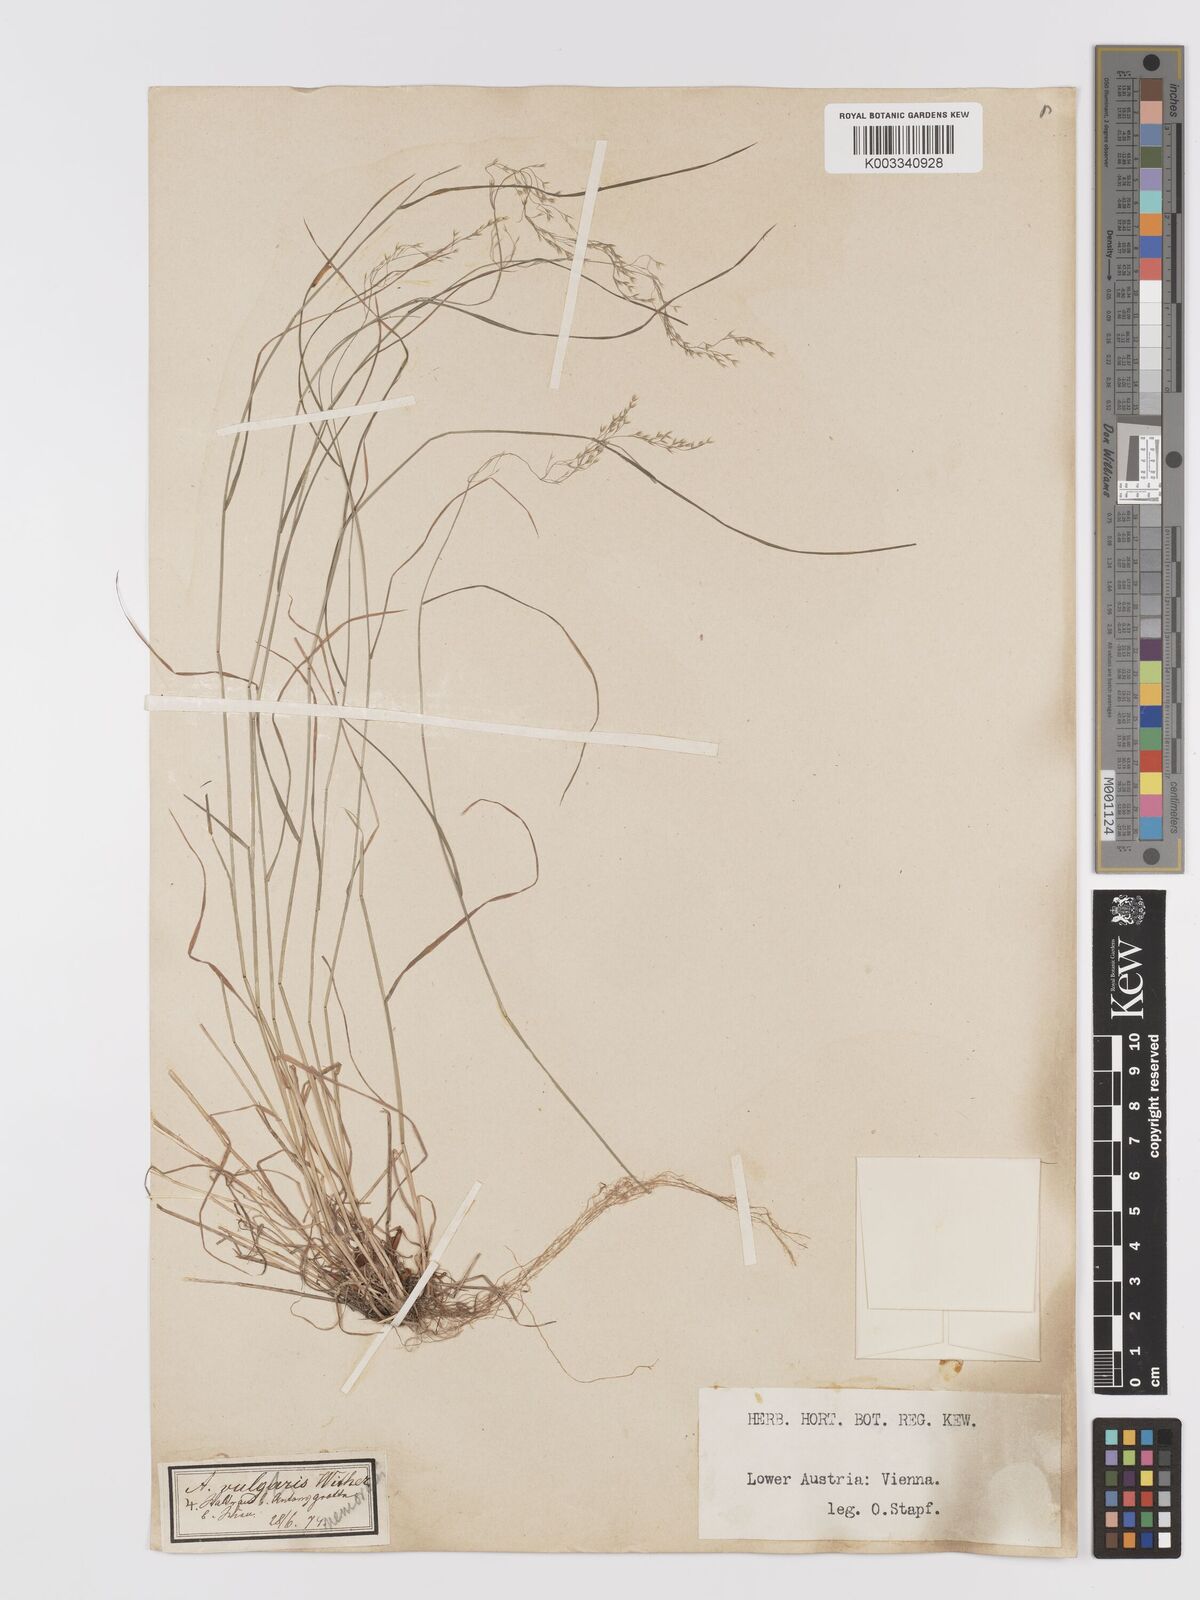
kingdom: Plantae
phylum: Tracheophyta
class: Liliopsida
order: Poales
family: Poaceae
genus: Agrostis
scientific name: Agrostis capillaris
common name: Colonial bentgrass
